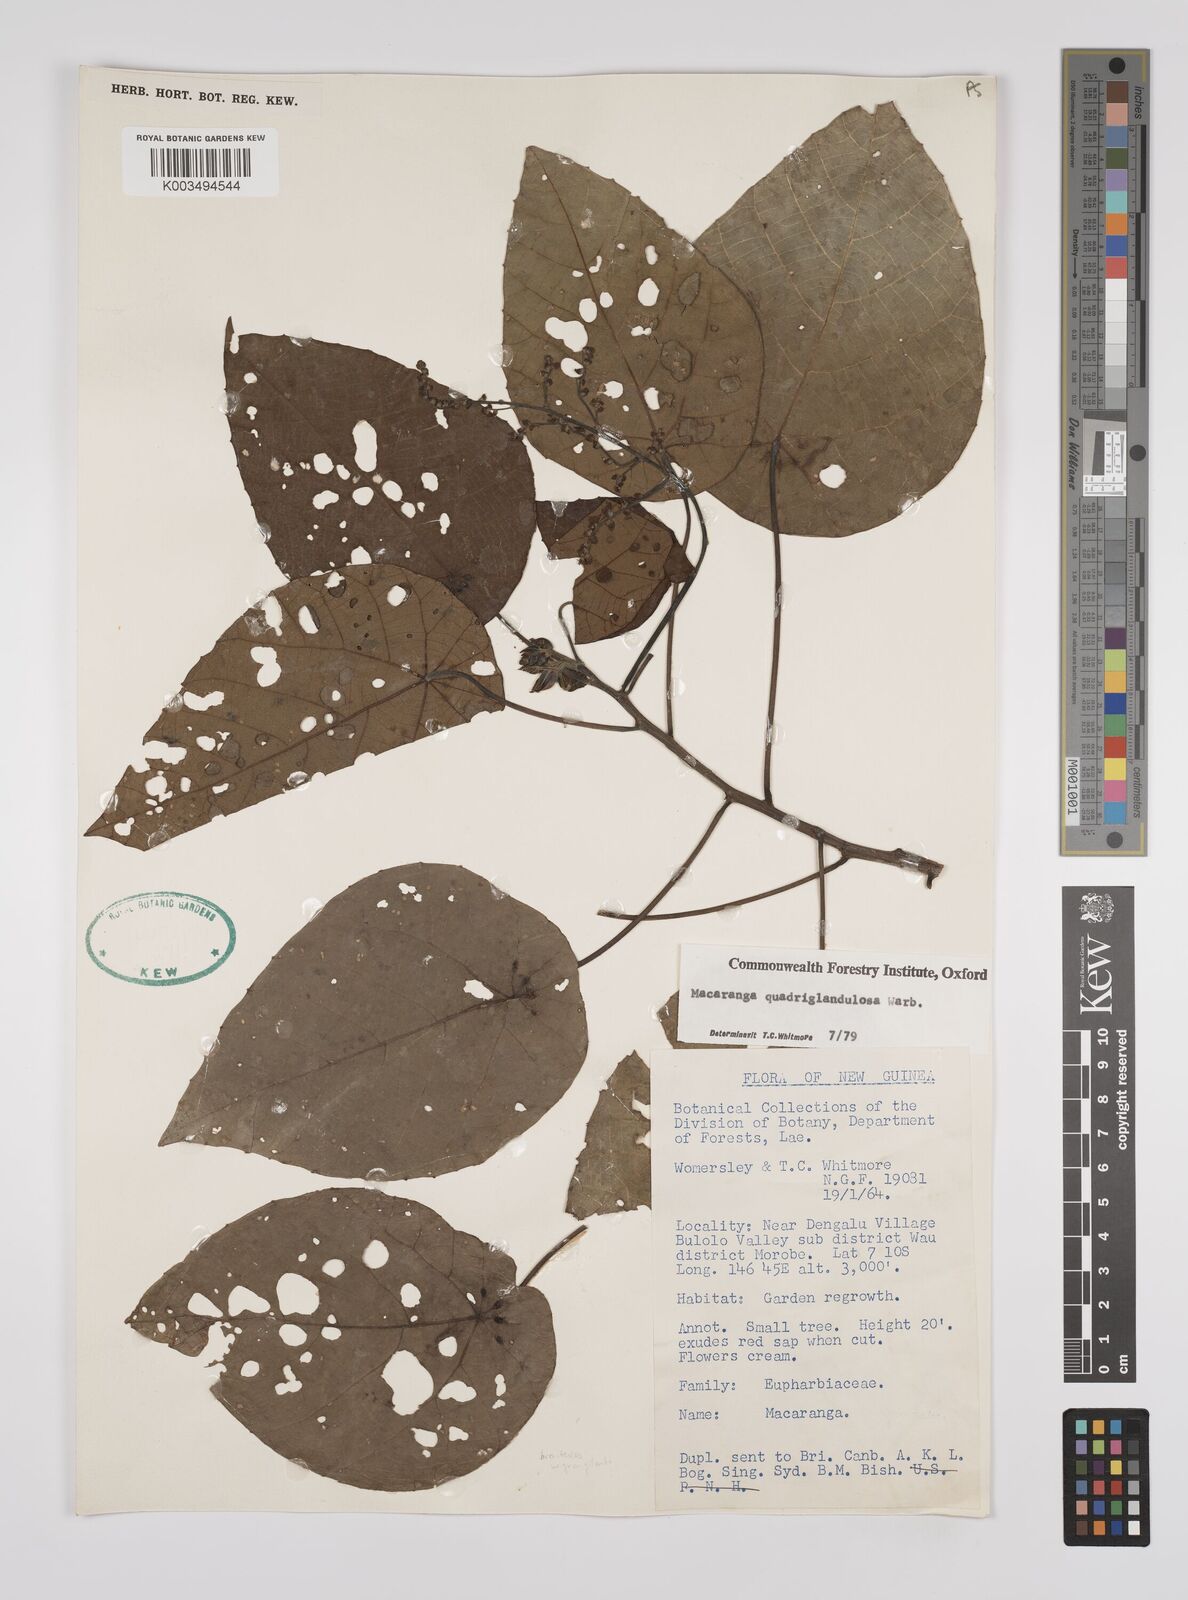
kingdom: Plantae
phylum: Tracheophyta
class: Magnoliopsida
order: Malpighiales
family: Euphorbiaceae
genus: Macaranga
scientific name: Macaranga quadriglandulosa
